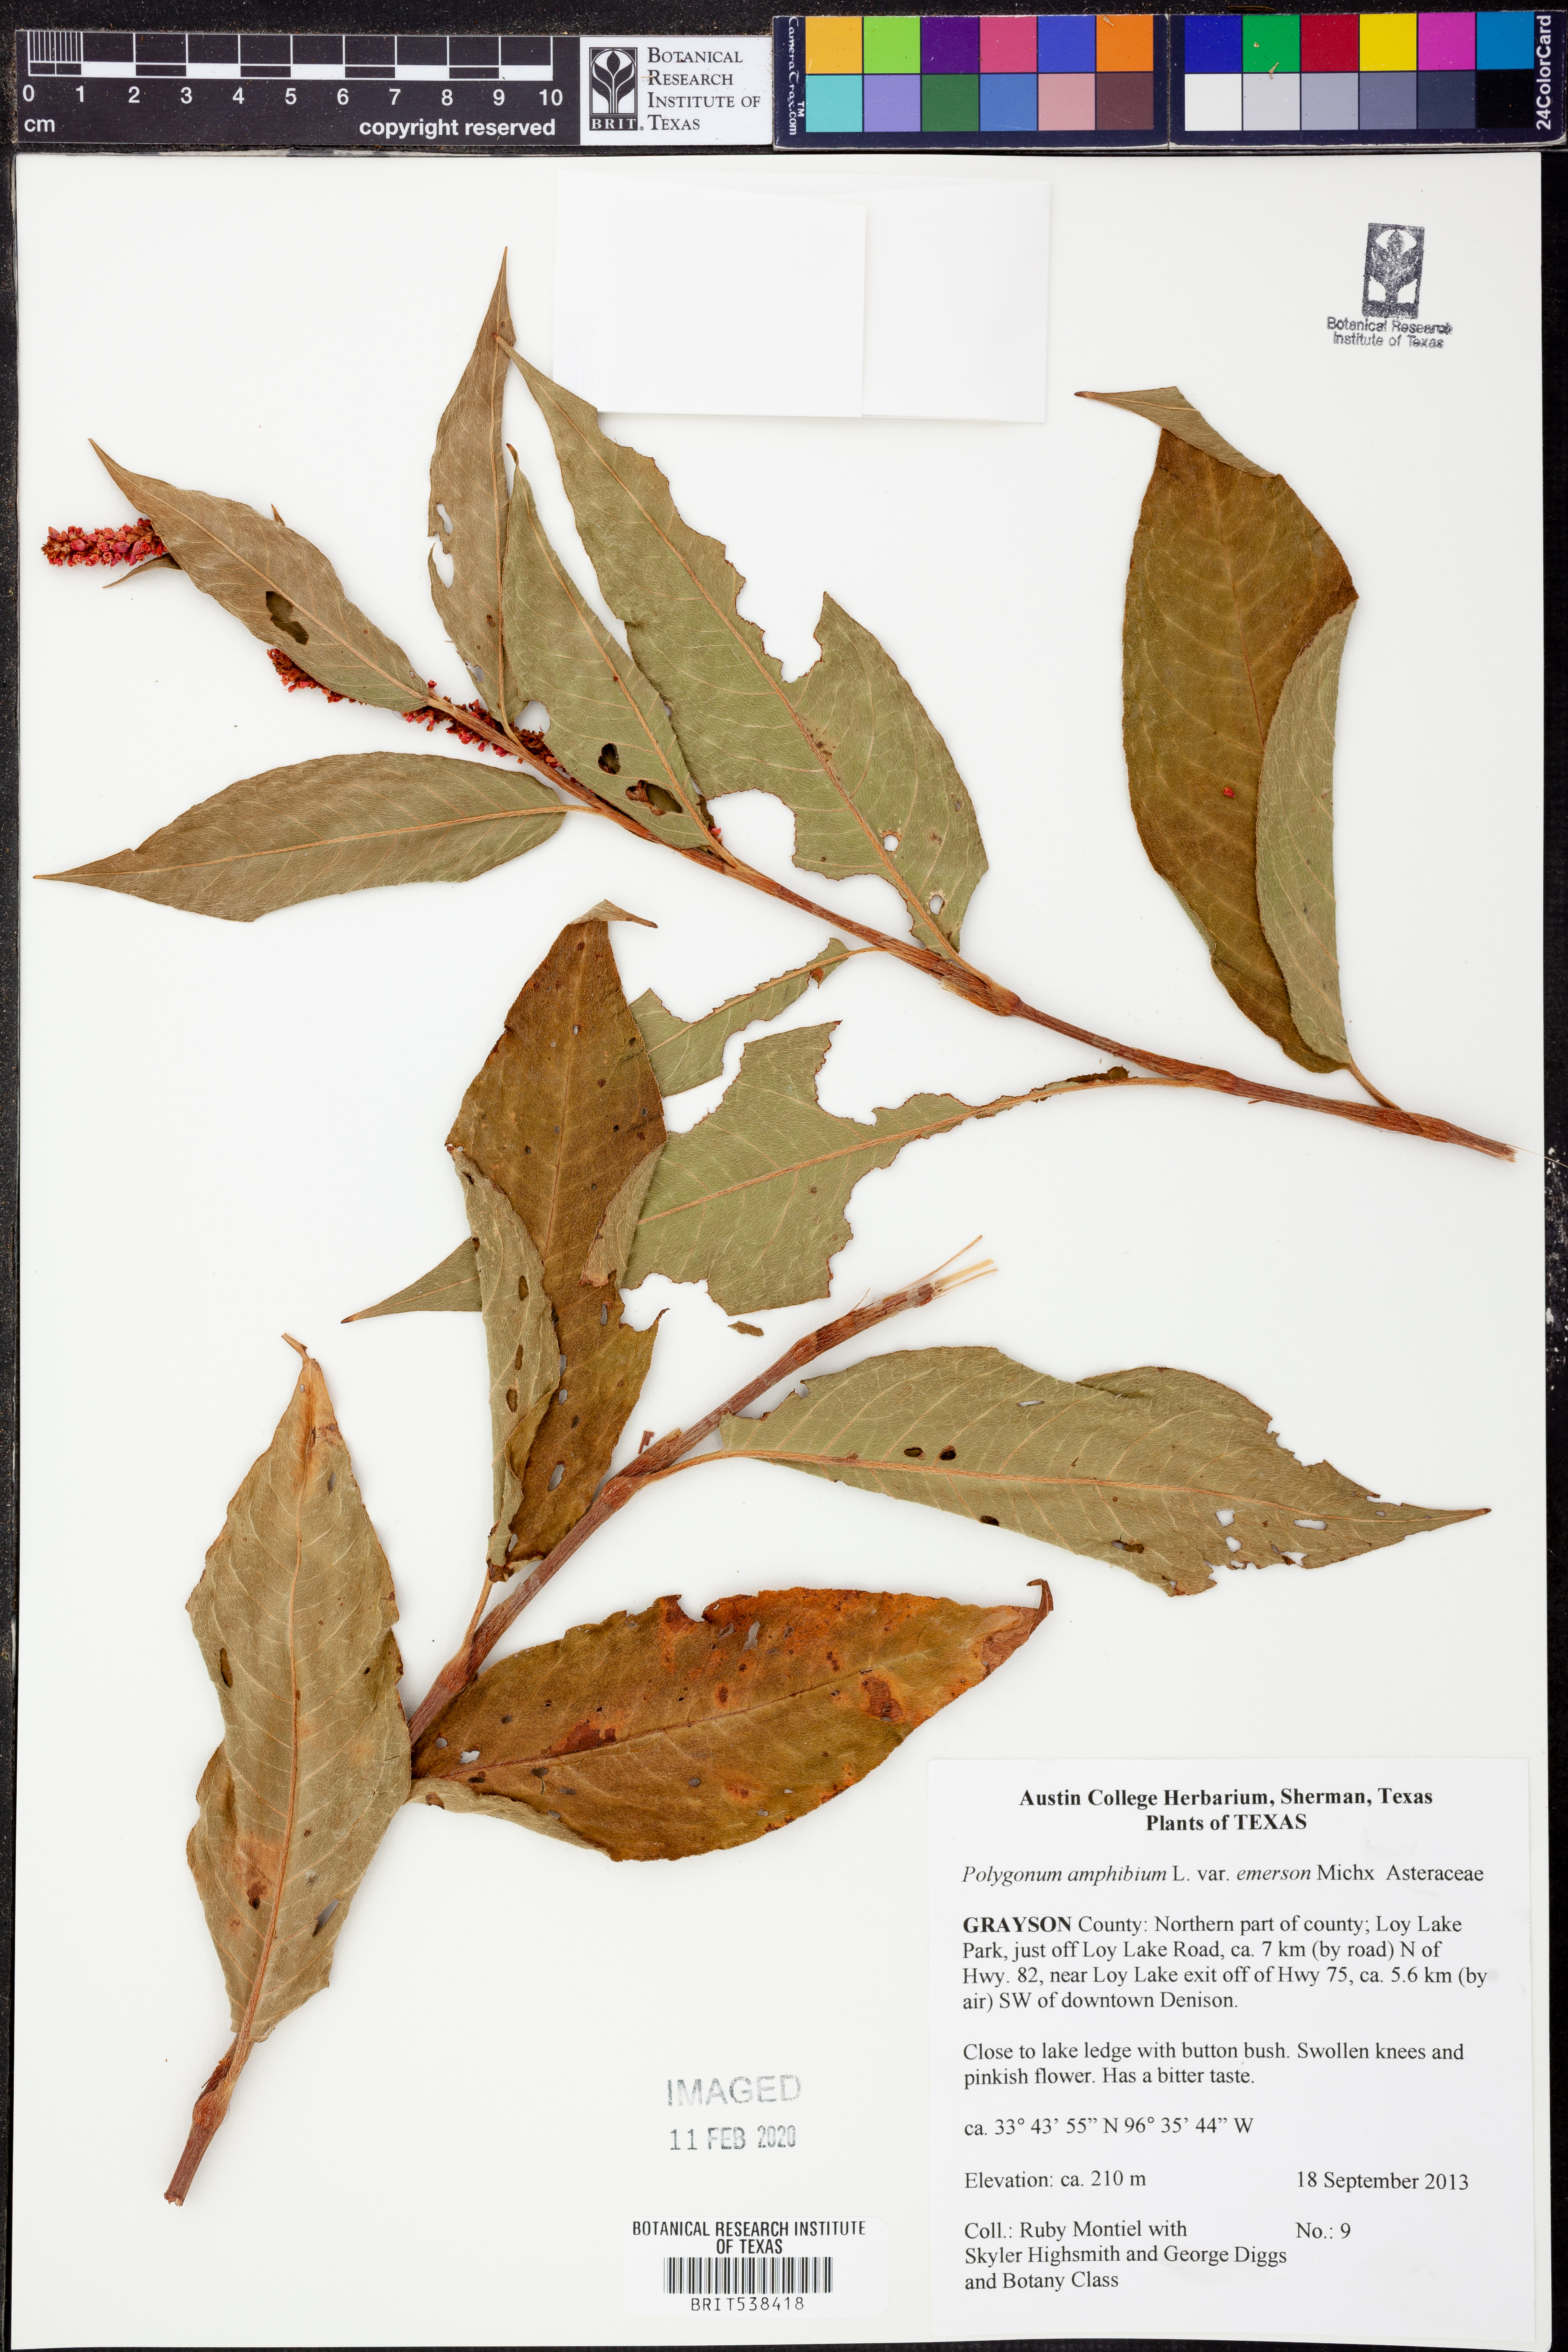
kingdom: Plantae
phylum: Tracheophyta
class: Magnoliopsida
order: Caryophyllales
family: Polygonaceae
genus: Persicaria
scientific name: Persicaria amphibia
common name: Amphibious bistort
